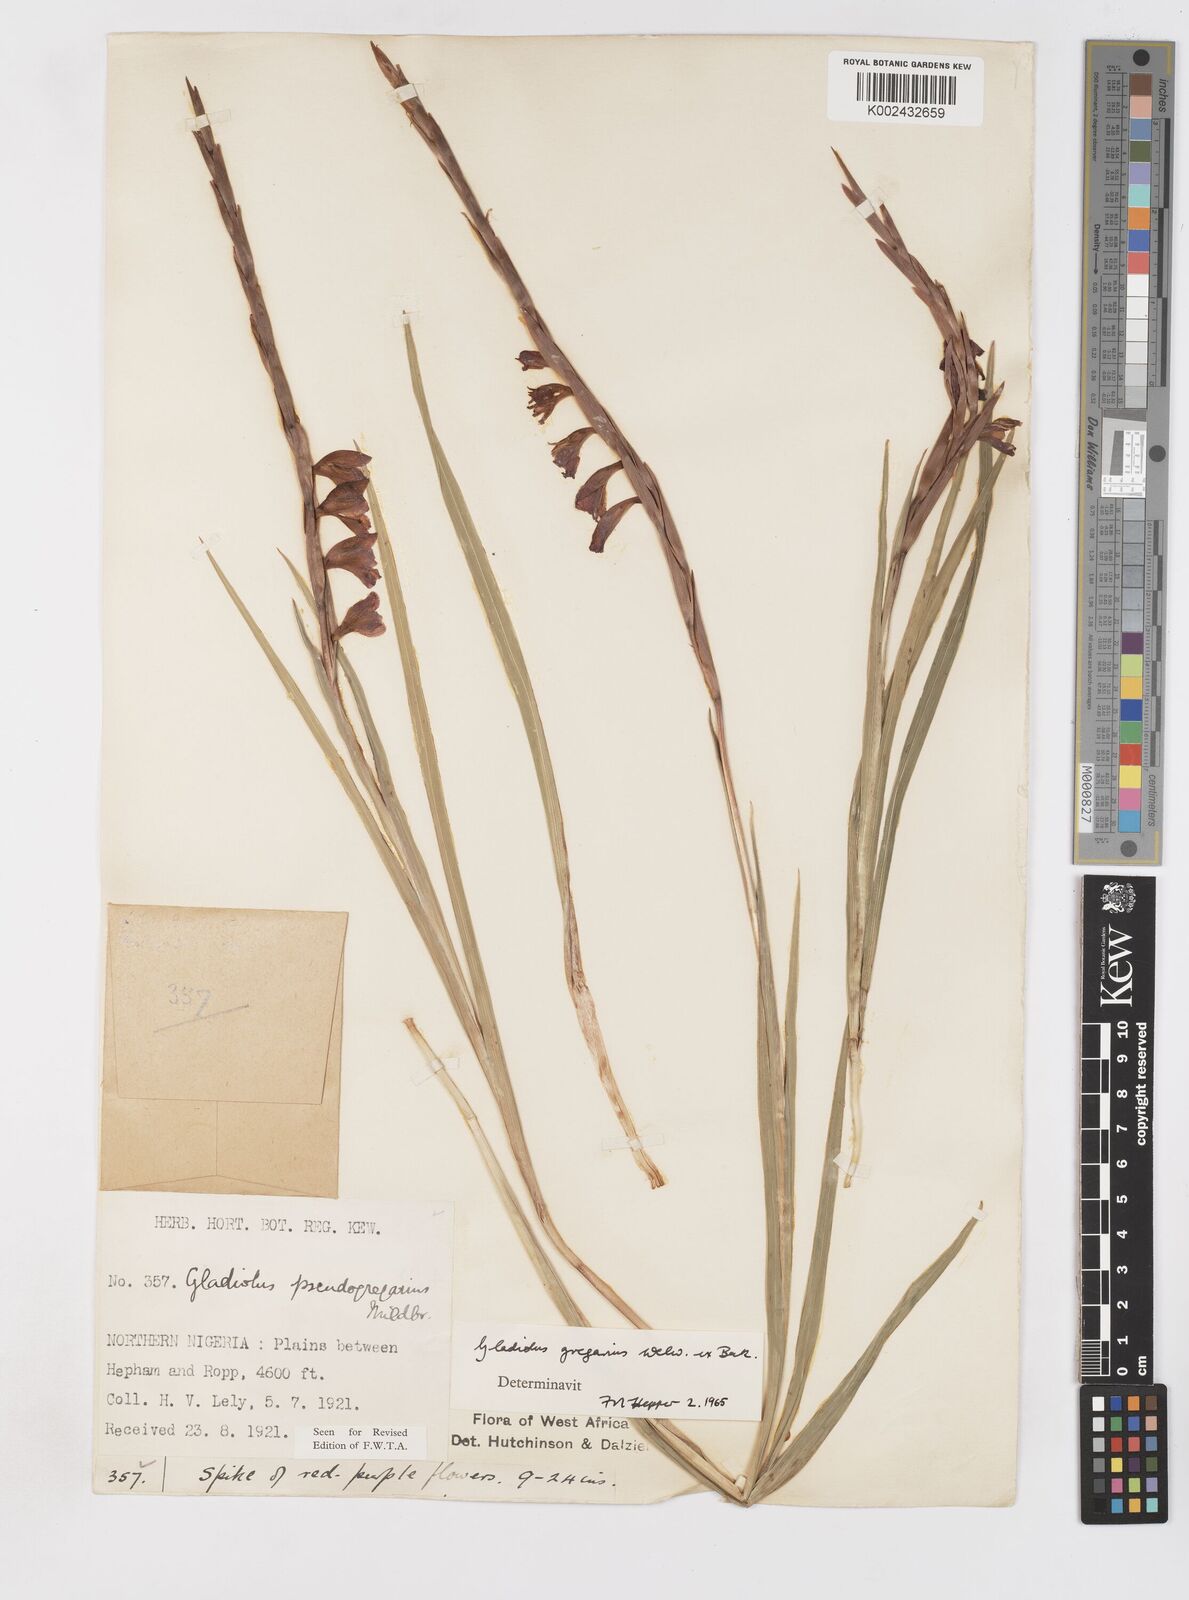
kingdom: Plantae
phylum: Tracheophyta
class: Liliopsida
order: Asparagales
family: Iridaceae
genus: Gladiolus
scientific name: Gladiolus gregarius
